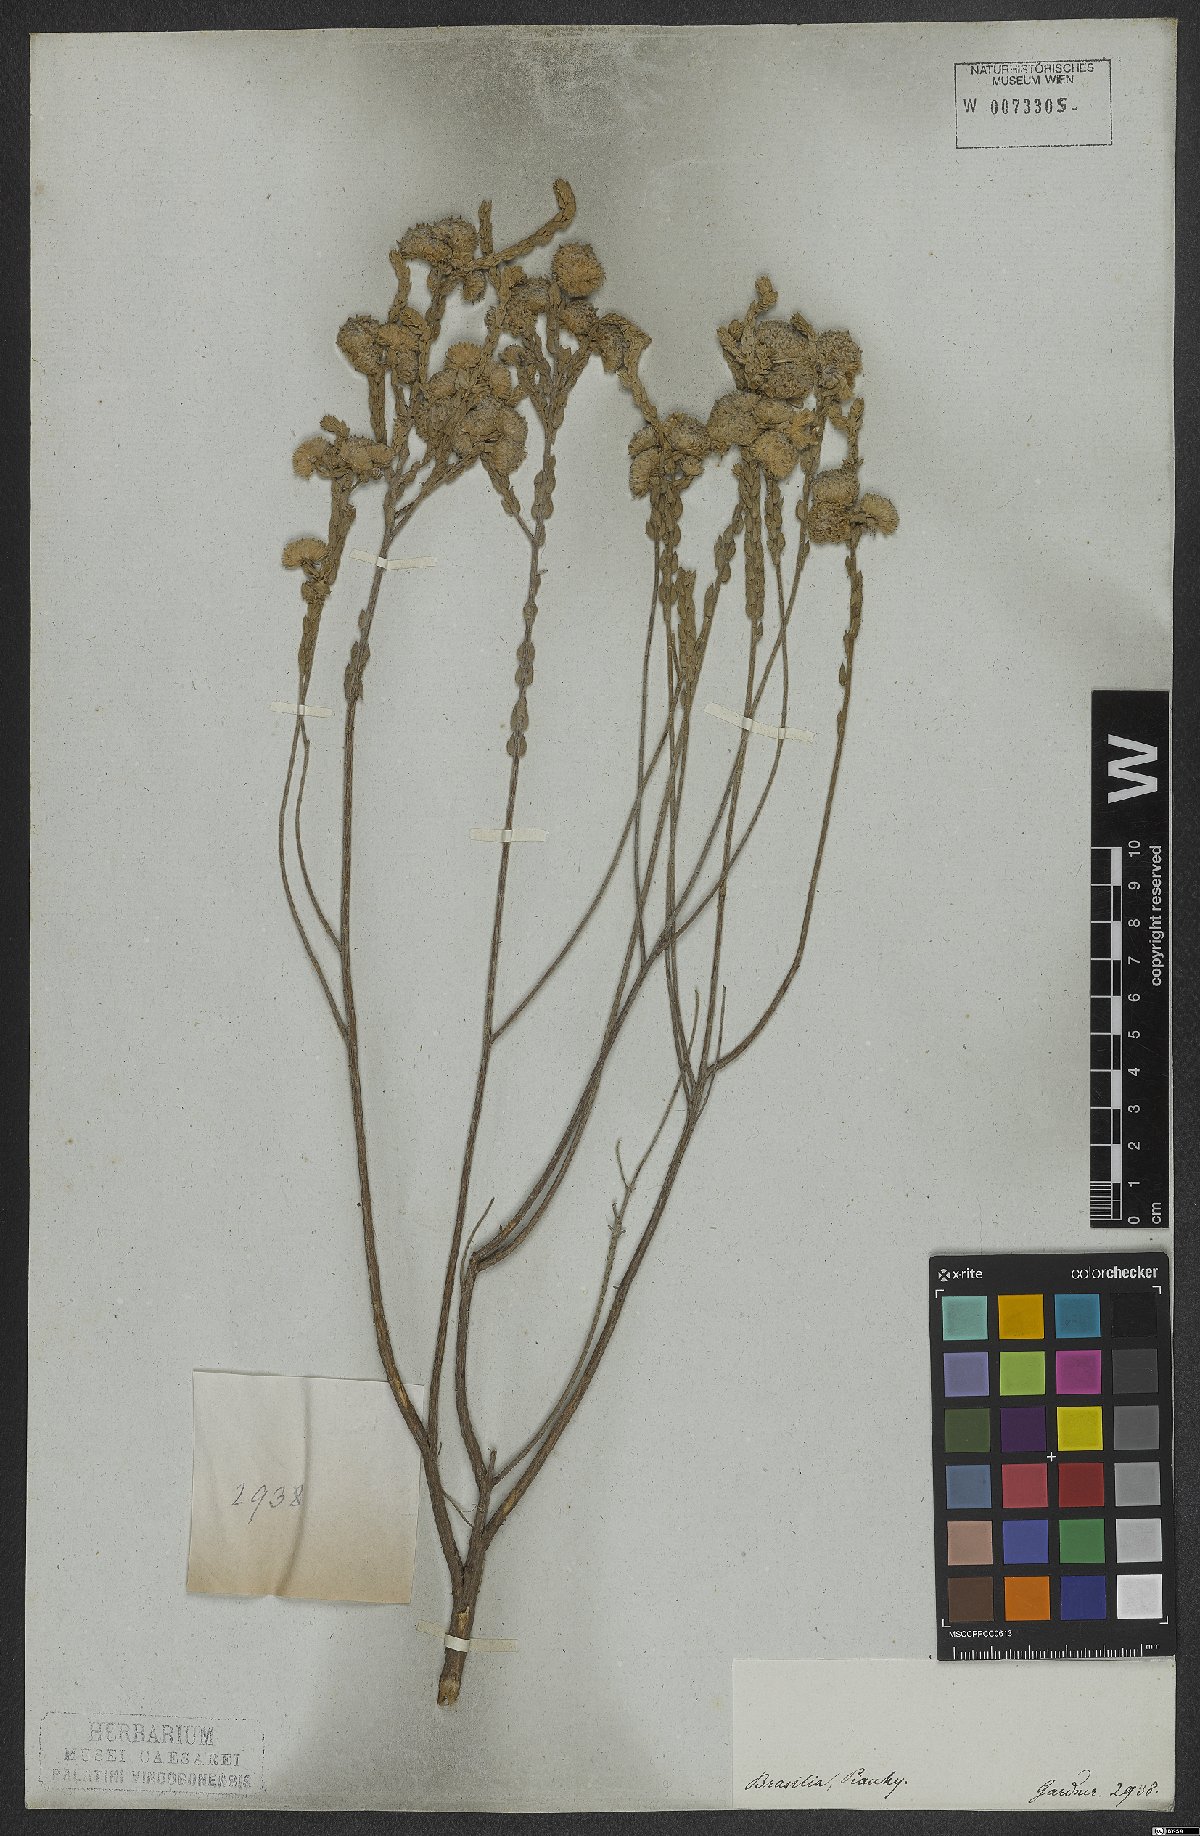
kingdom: Plantae
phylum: Tracheophyta
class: Magnoliopsida
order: Malvales
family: Thymelaeaceae
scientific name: Thymelaeaceae
